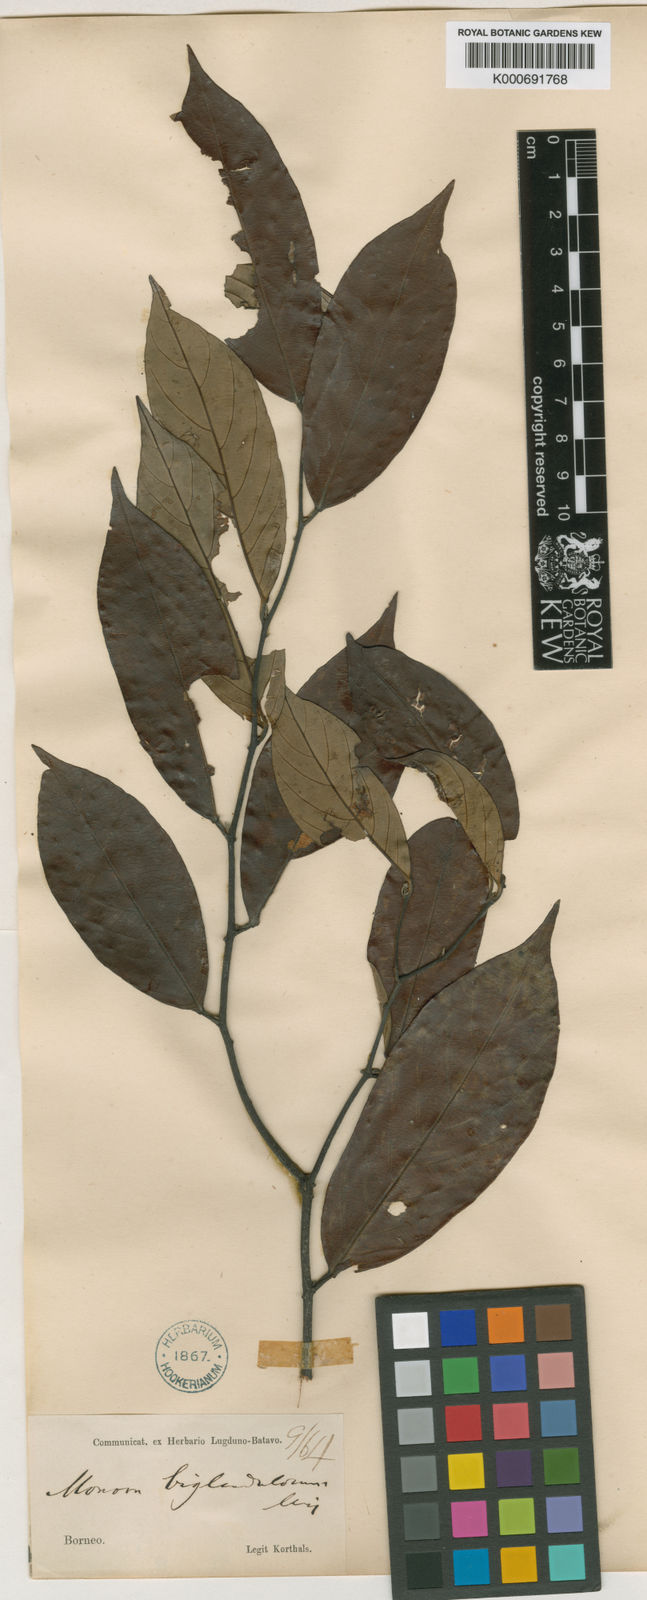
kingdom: Plantae
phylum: Tracheophyta
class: Magnoliopsida
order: Magnoliales
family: Annonaceae
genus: Friesodielsia
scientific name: Friesodielsia biglandulosa
